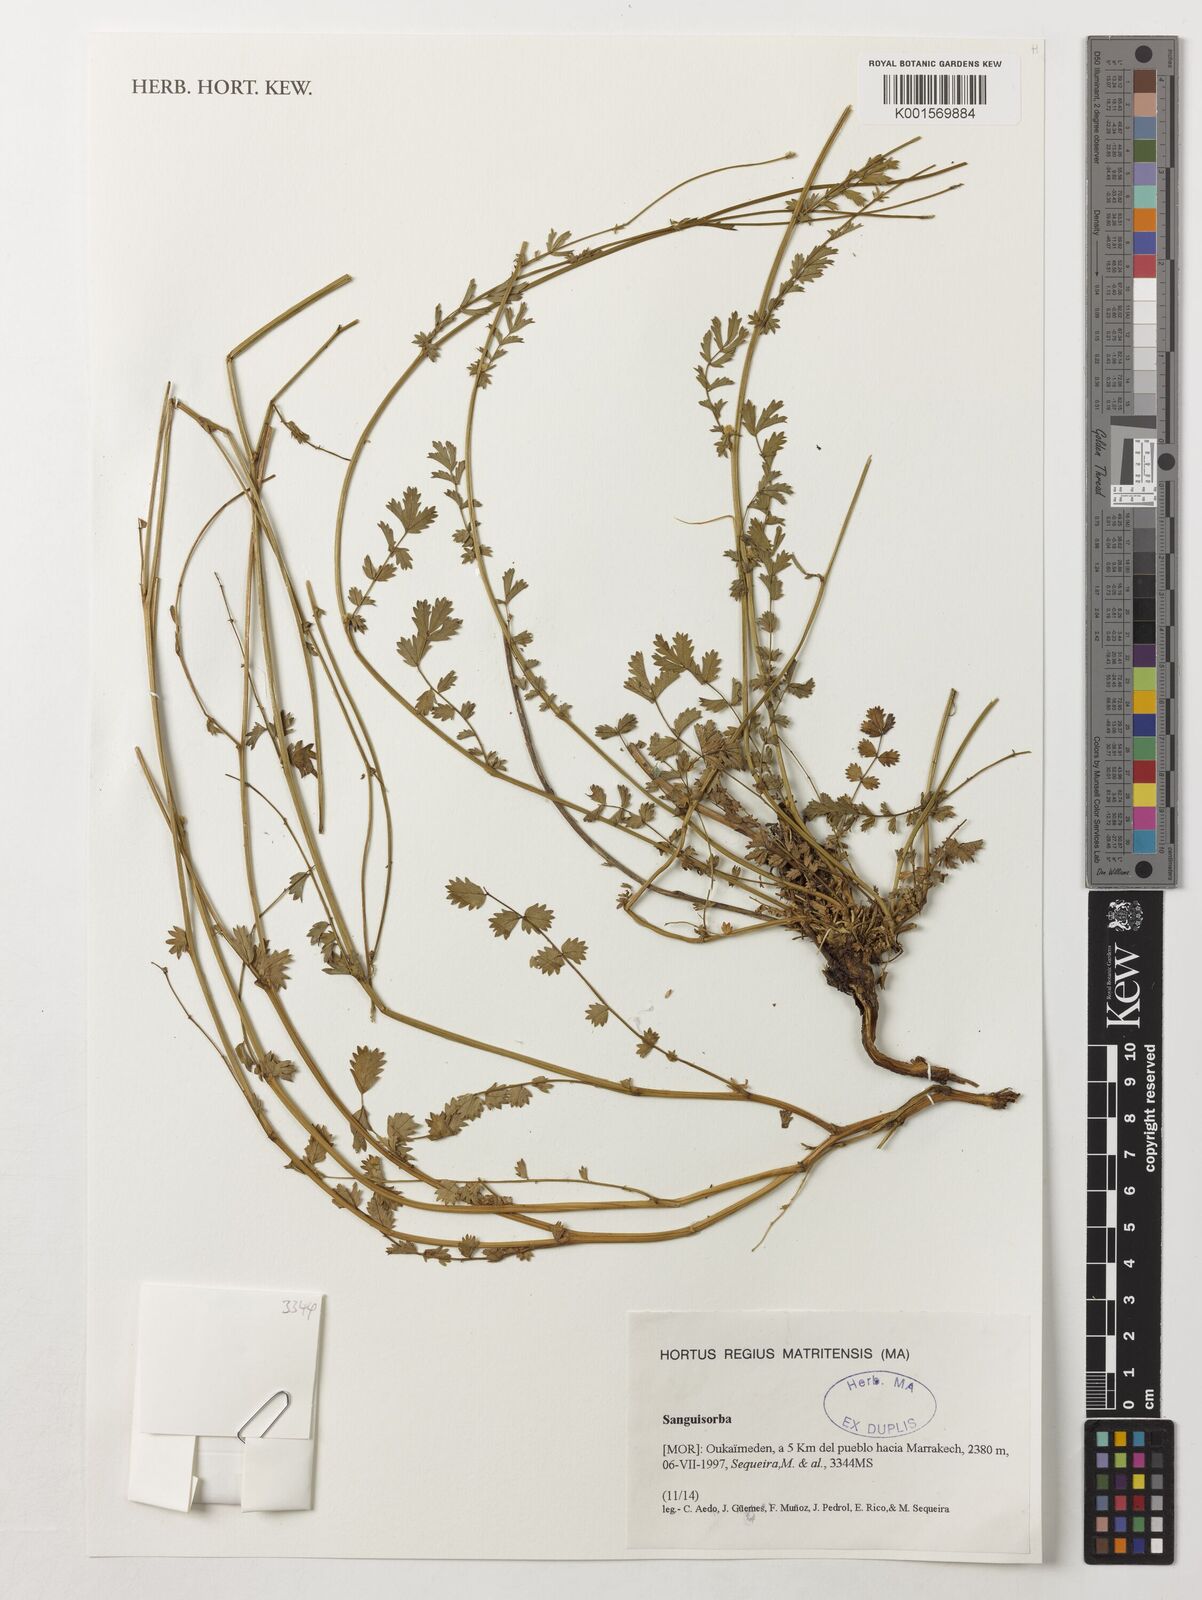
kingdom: Plantae
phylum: Tracheophyta
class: Magnoliopsida
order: Rosales
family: Rosaceae
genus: Sanguisorba
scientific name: Sanguisorba
